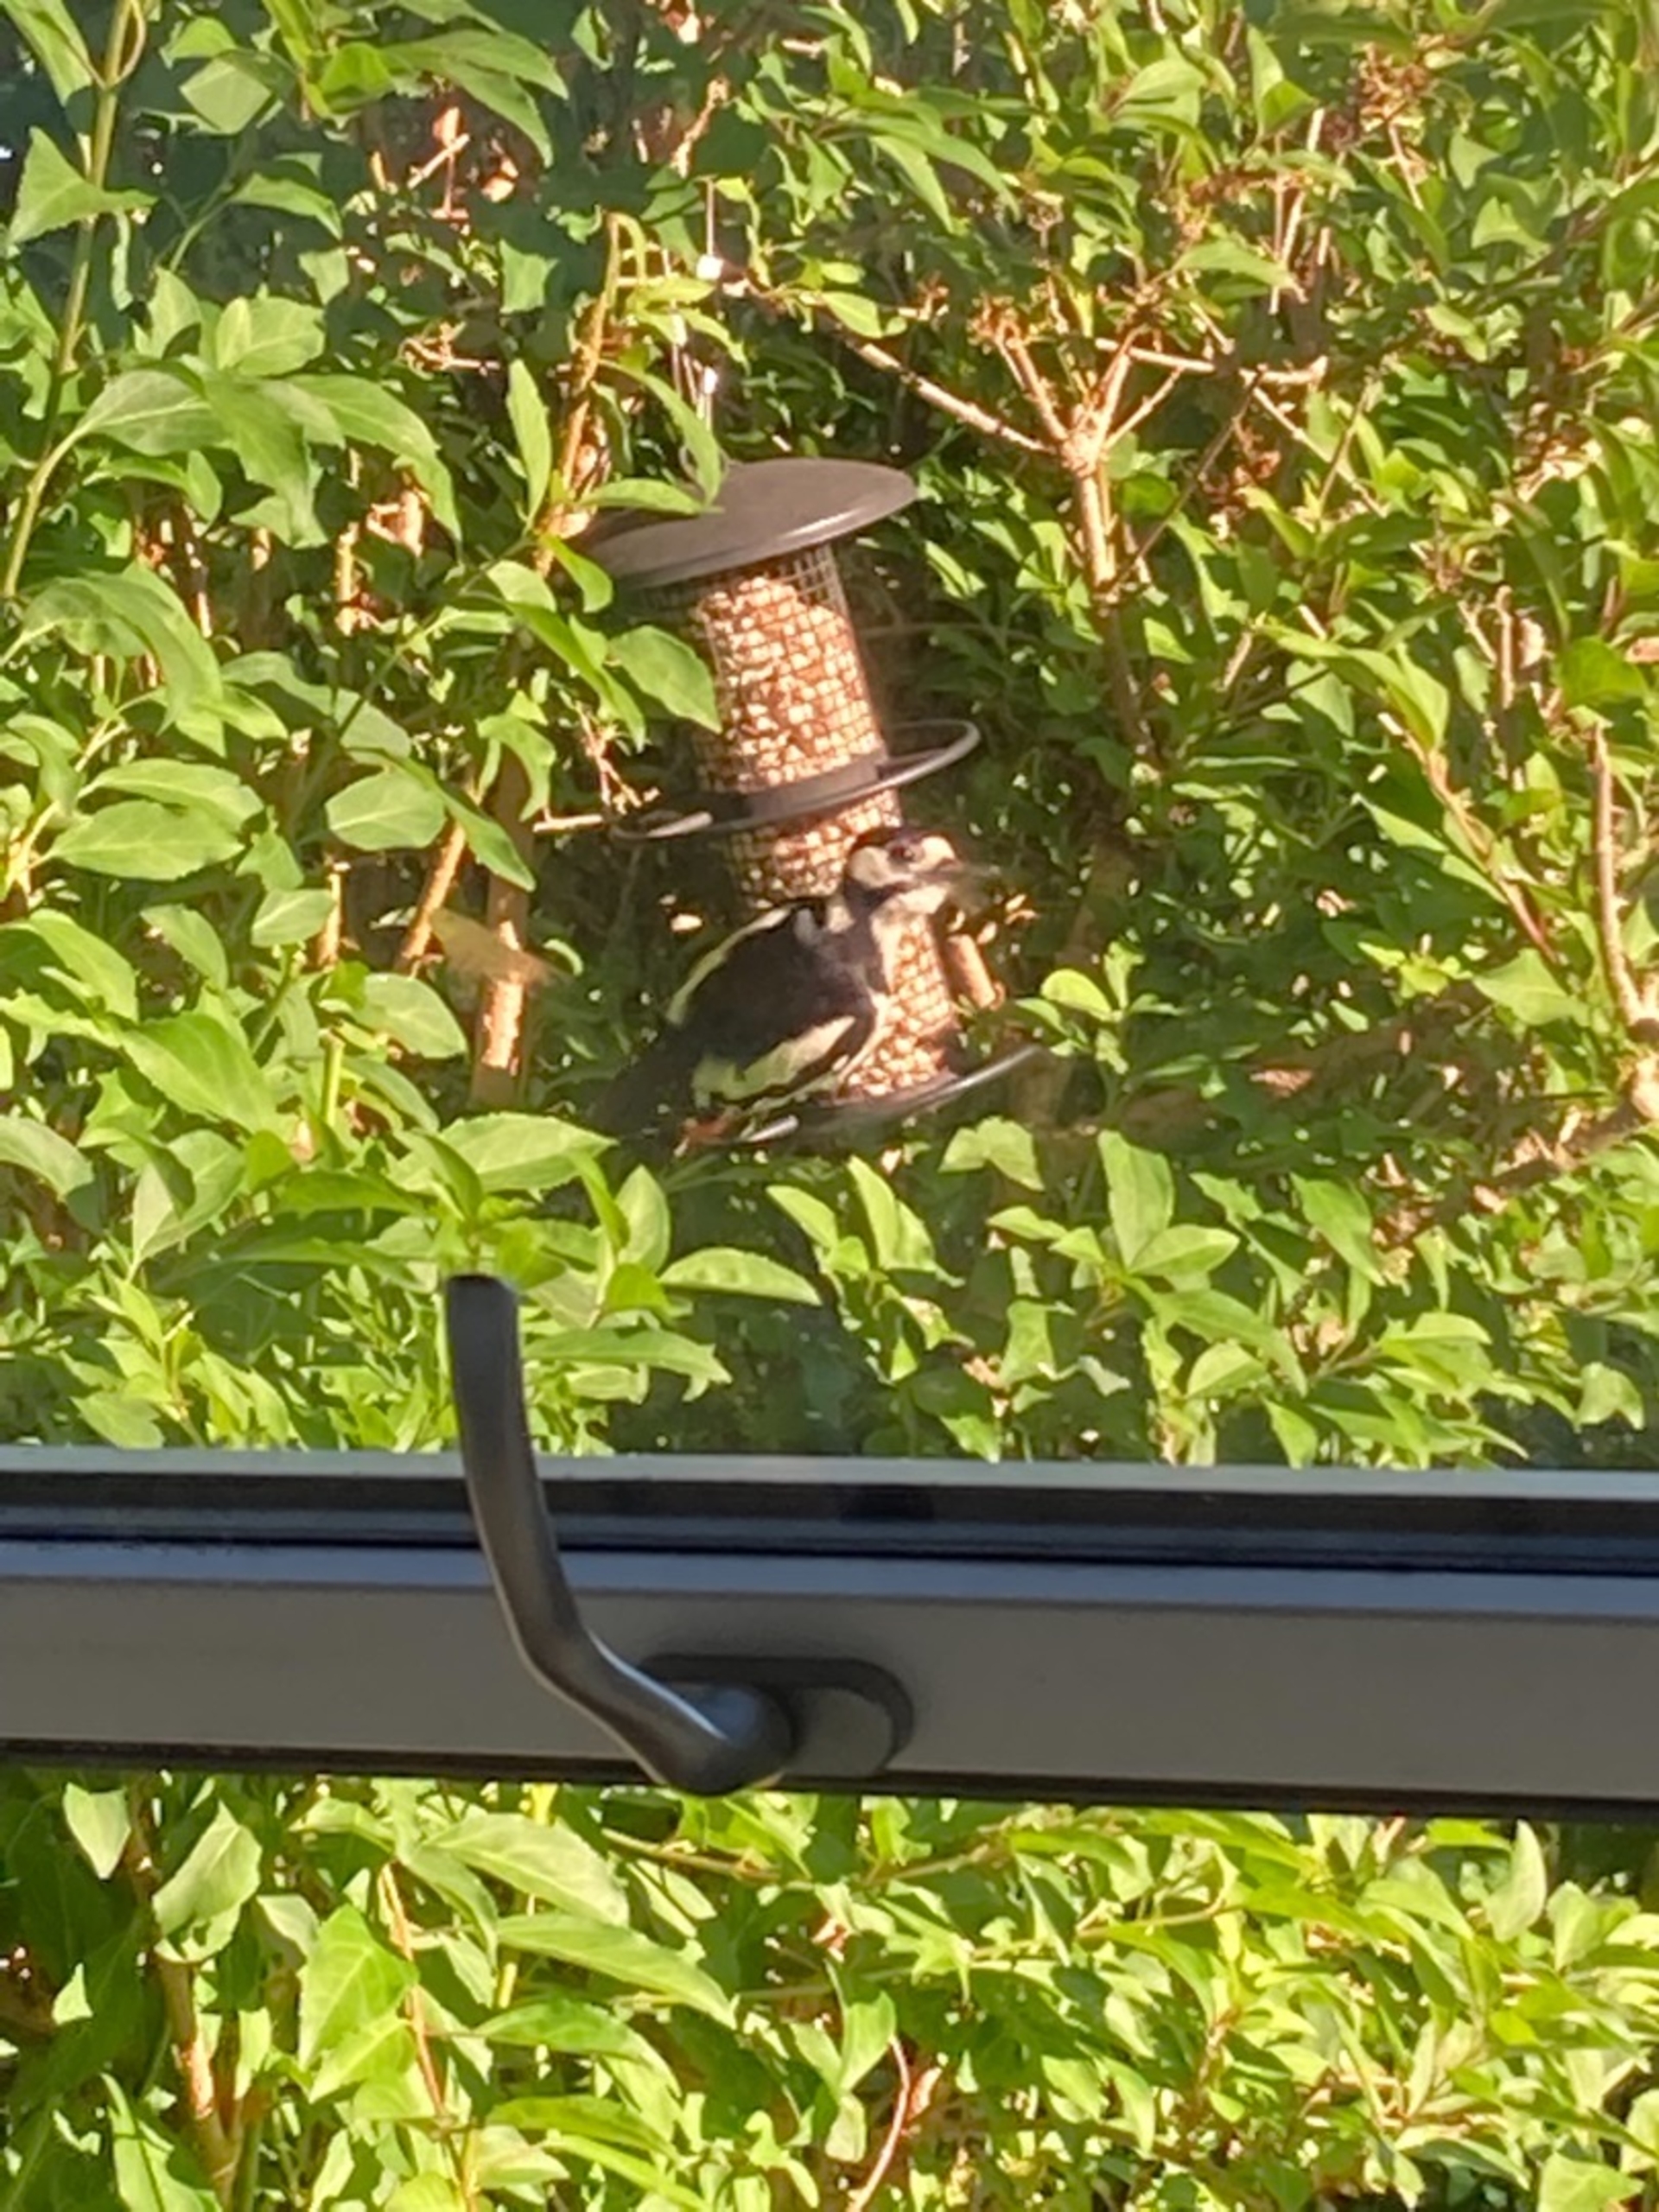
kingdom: Animalia
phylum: Chordata
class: Aves
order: Piciformes
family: Picidae
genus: Dendrocopos
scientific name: Dendrocopos major
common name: Stor flagspætte
